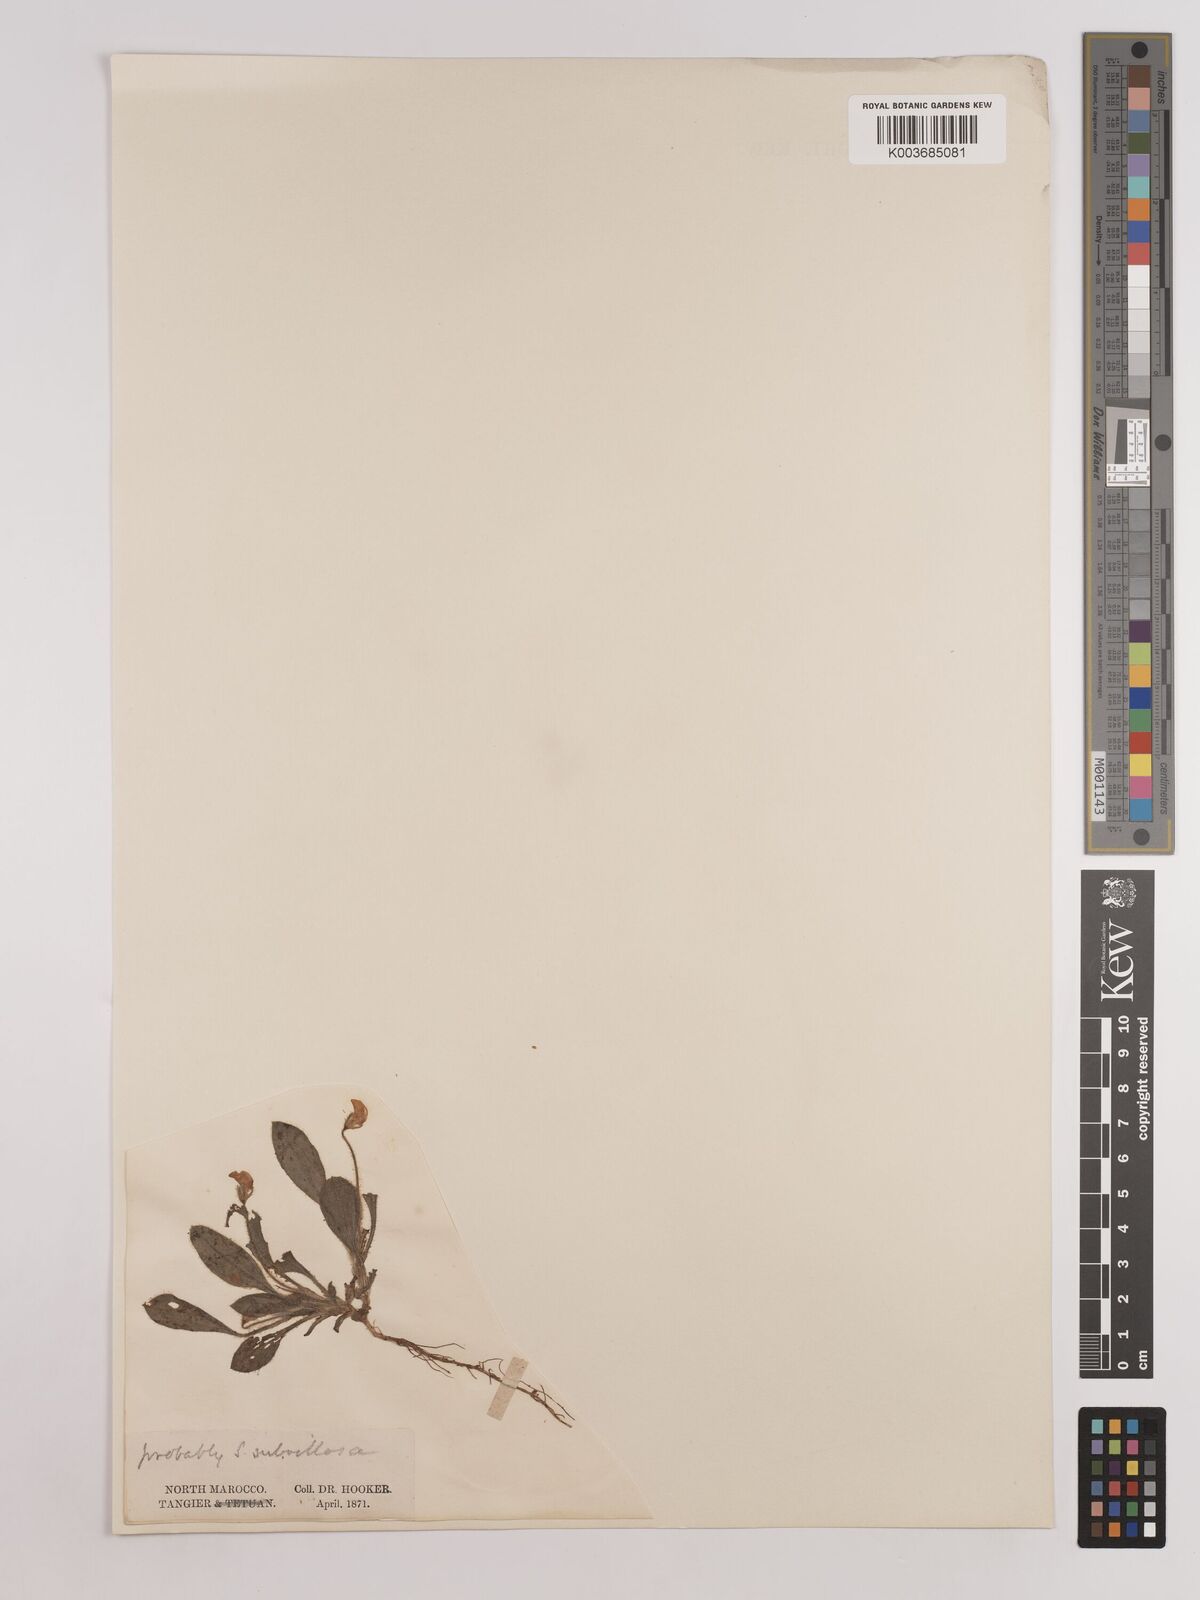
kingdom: Plantae
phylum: Tracheophyta
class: Magnoliopsida
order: Fabales
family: Fabaceae
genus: Scorpiurus
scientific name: Scorpiurus muricatus
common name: Caterpillar-plant
